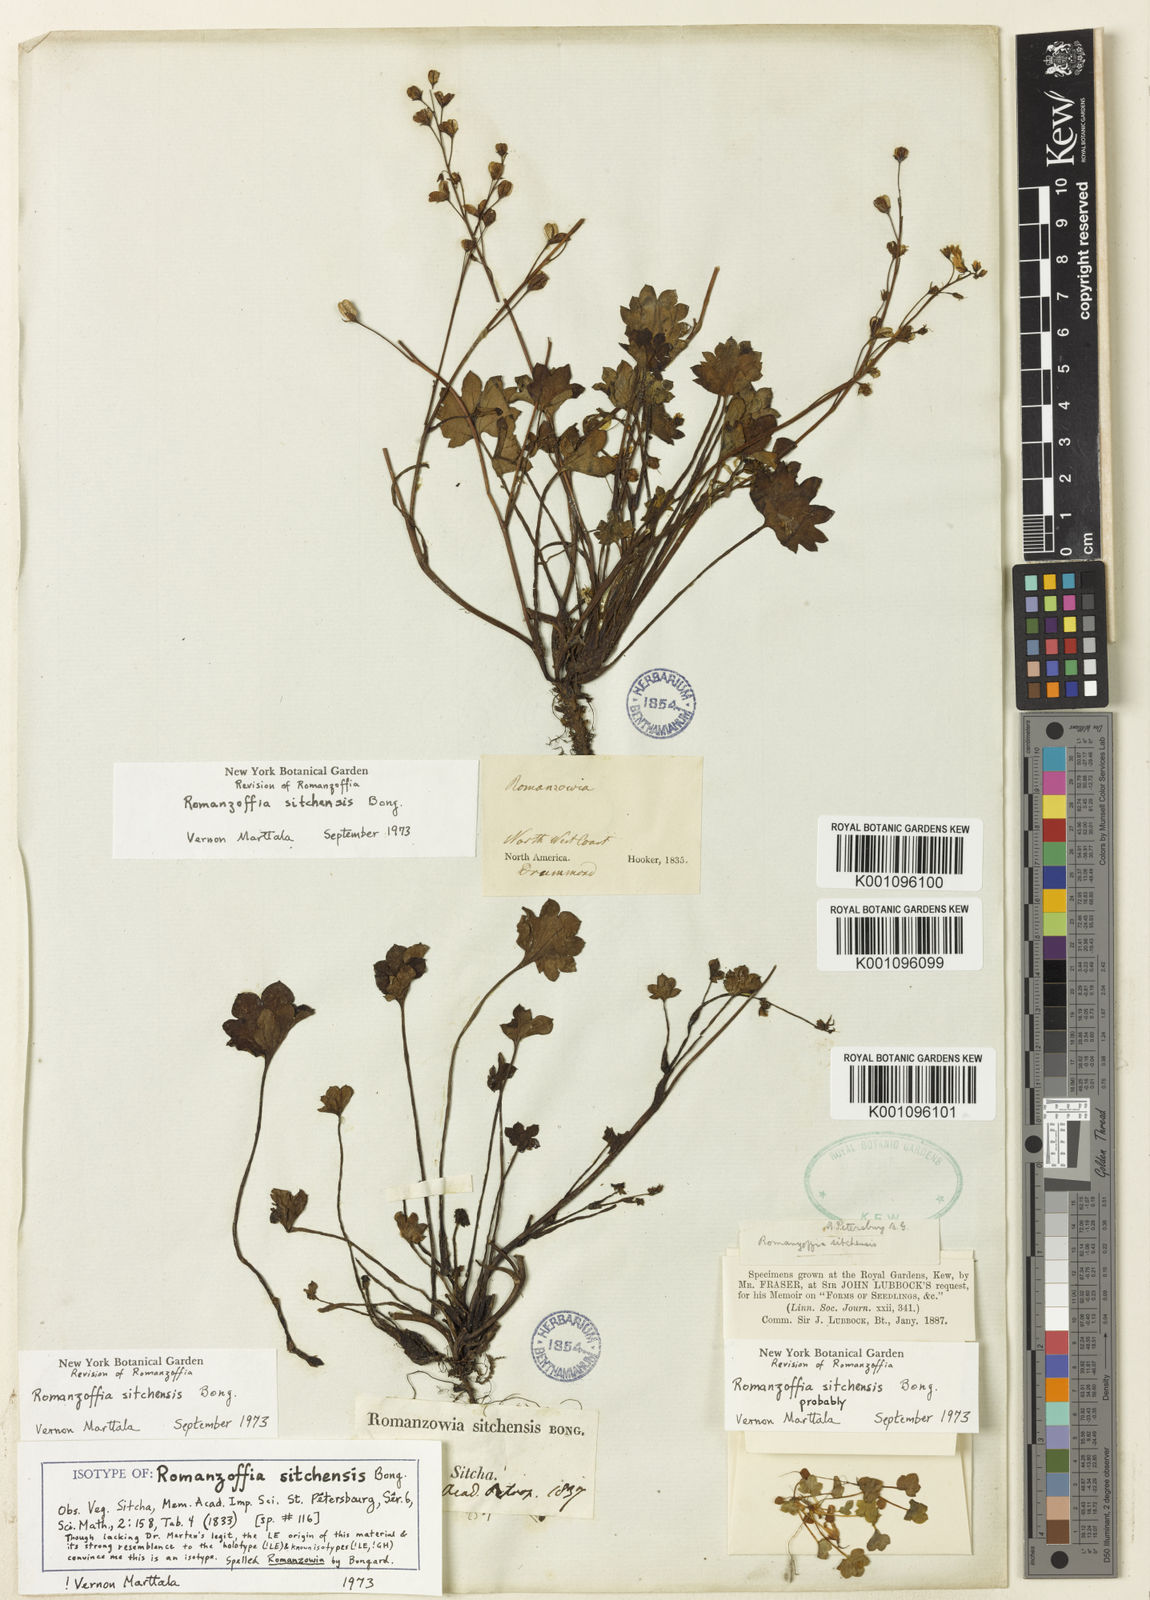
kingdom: Plantae
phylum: Tracheophyta
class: Magnoliopsida
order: Boraginales
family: Hydrophyllaceae
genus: Romanzoffia
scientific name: Romanzoffia sitchensis
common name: Sitka mistmaid
